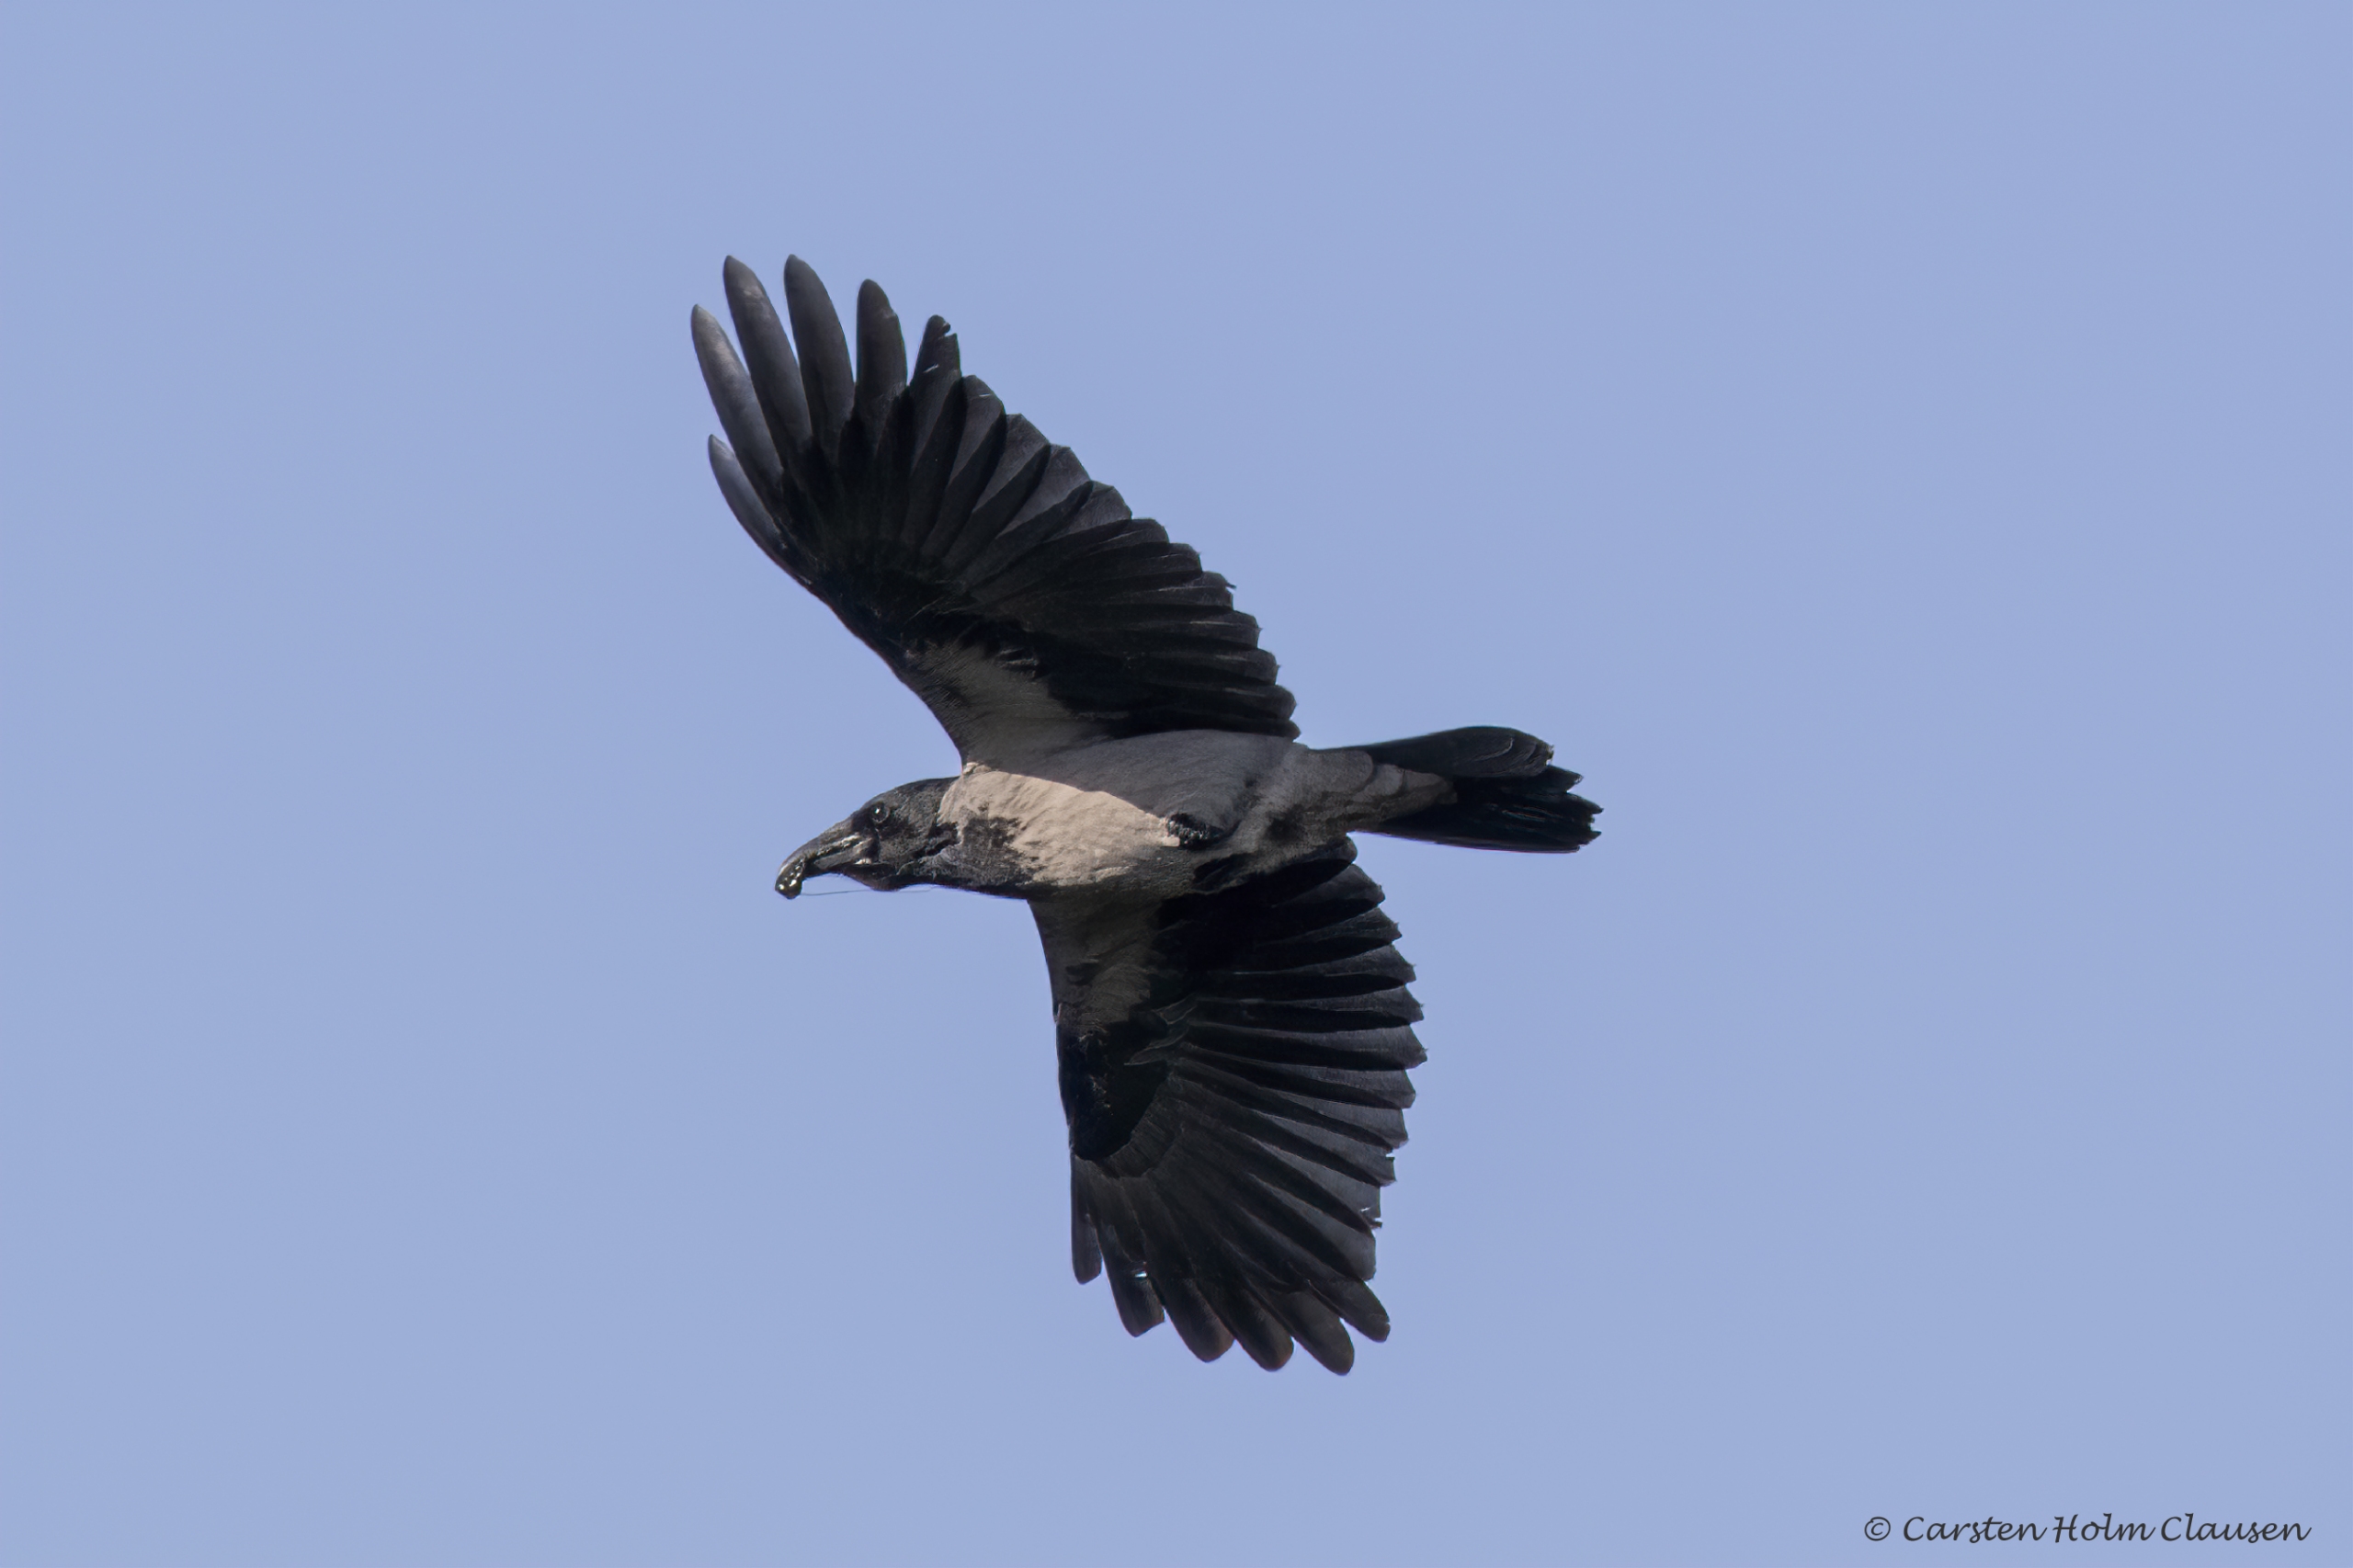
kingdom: Animalia
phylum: Chordata
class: Aves
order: Passeriformes
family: Corvidae
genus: Corvus
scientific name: Corvus cornix
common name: Gråkrage
